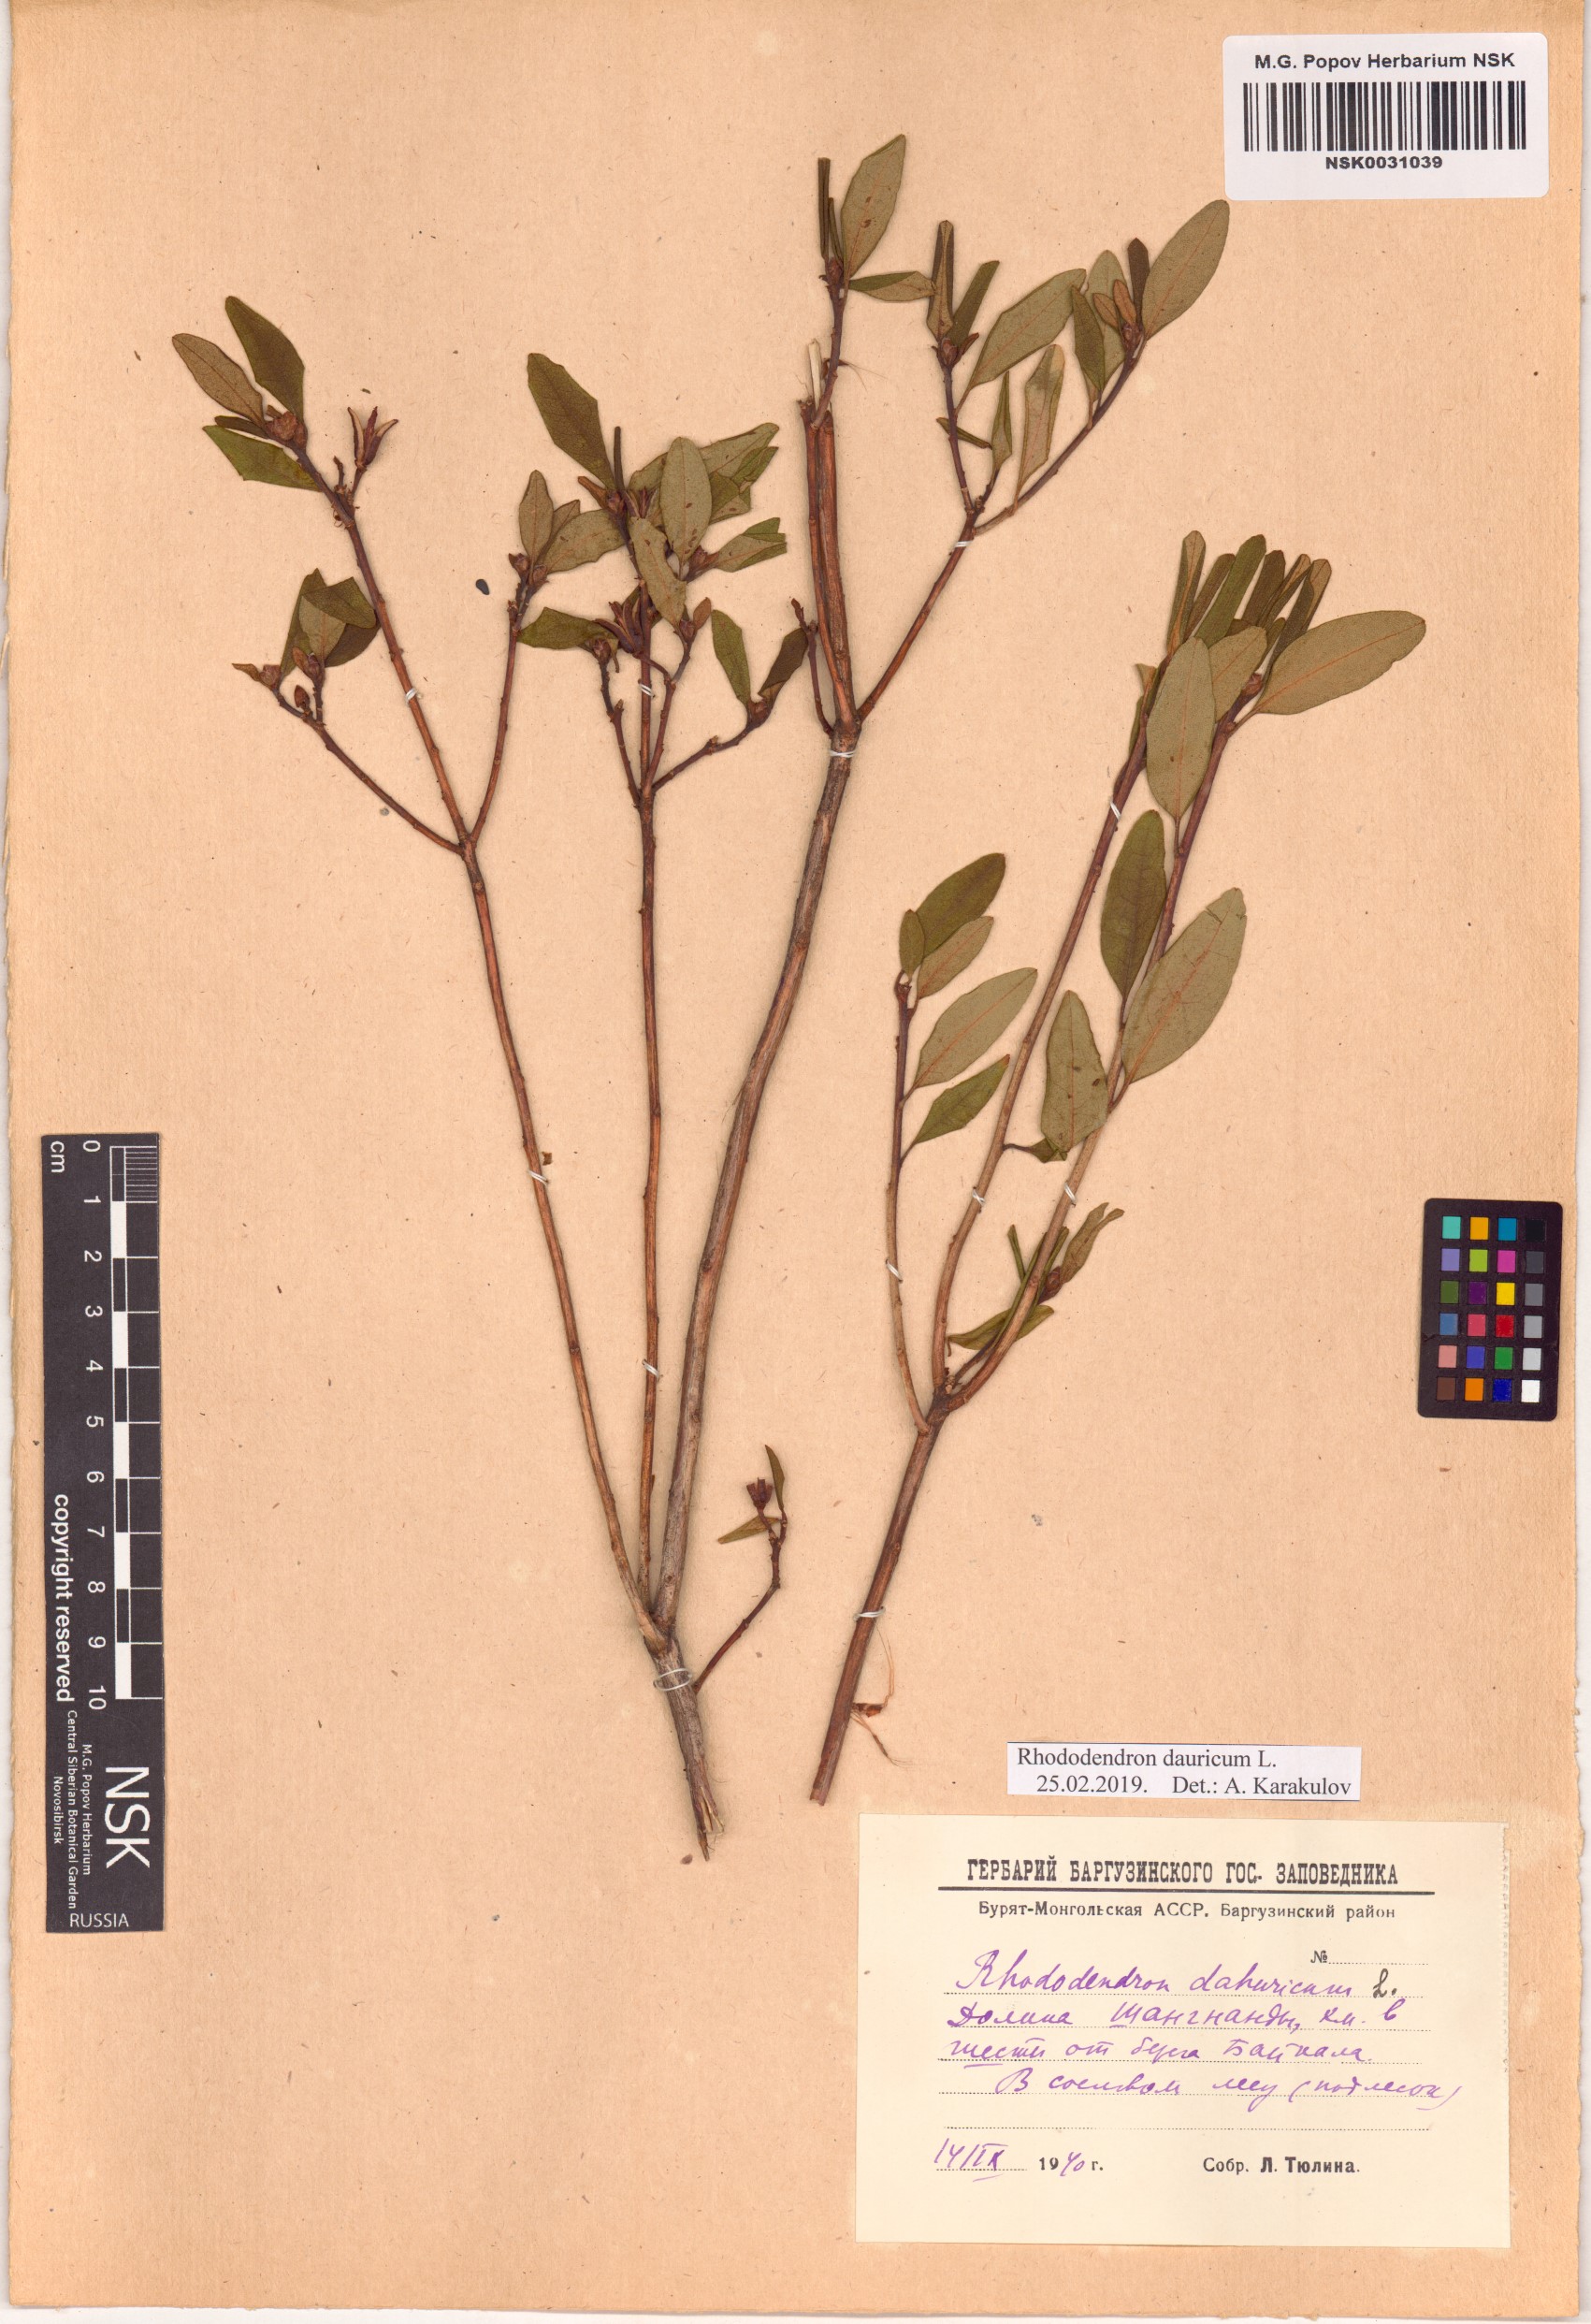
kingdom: Plantae
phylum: Tracheophyta
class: Magnoliopsida
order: Ericales
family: Ericaceae
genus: Rhododendron
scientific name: Rhododendron dauricum
